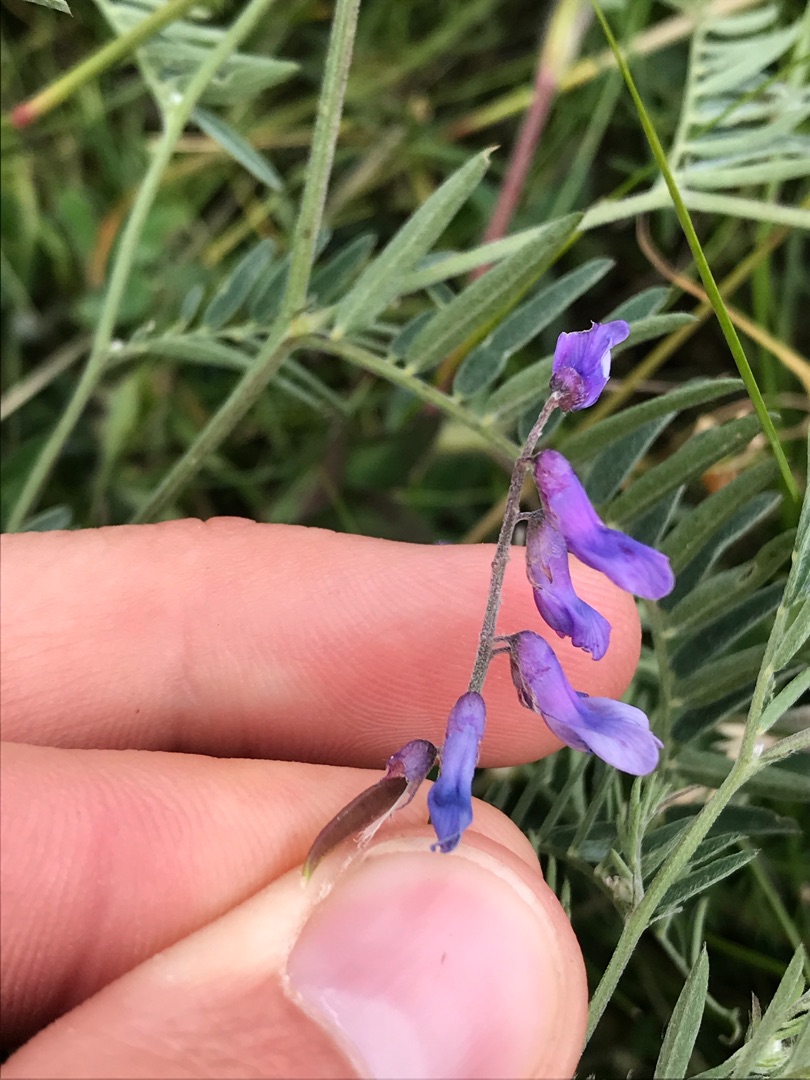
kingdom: Plantae
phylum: Tracheophyta
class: Magnoliopsida
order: Fabales
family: Fabaceae
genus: Vicia
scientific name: Vicia cracca
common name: Muse-vikke
